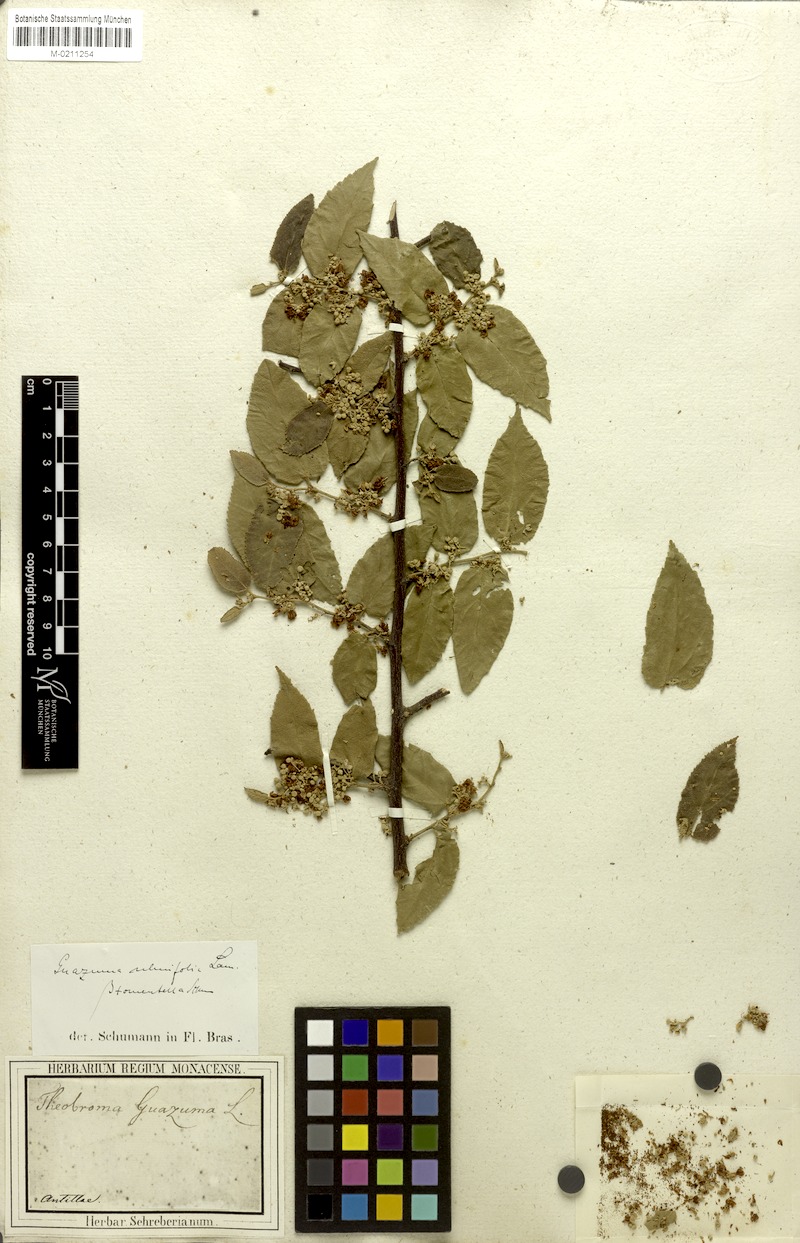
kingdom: Plantae
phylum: Tracheophyta
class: Magnoliopsida
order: Malvales
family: Malvaceae
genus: Guazuma
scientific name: Guazuma ulmifolia
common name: Bastard-cedar
